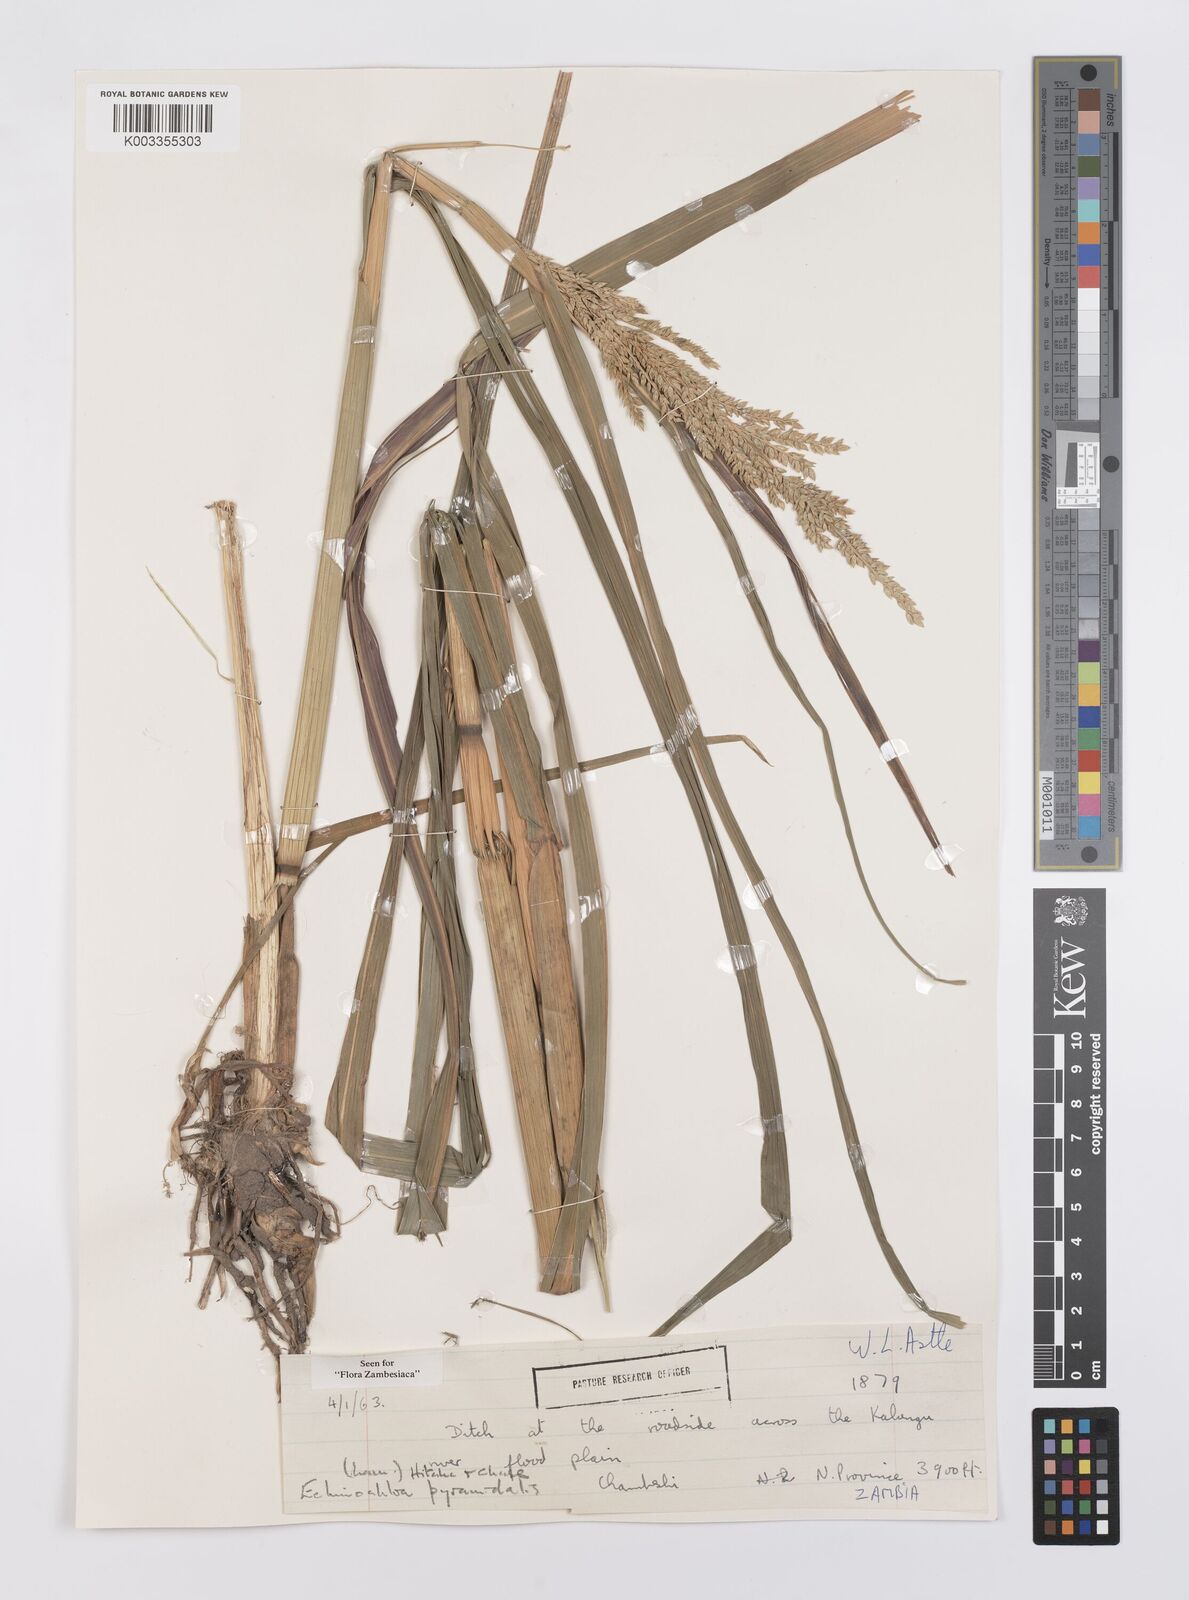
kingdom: Plantae
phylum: Tracheophyta
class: Liliopsida
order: Poales
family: Poaceae
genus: Echinochloa
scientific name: Echinochloa pyramidalis
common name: Antelope grass
